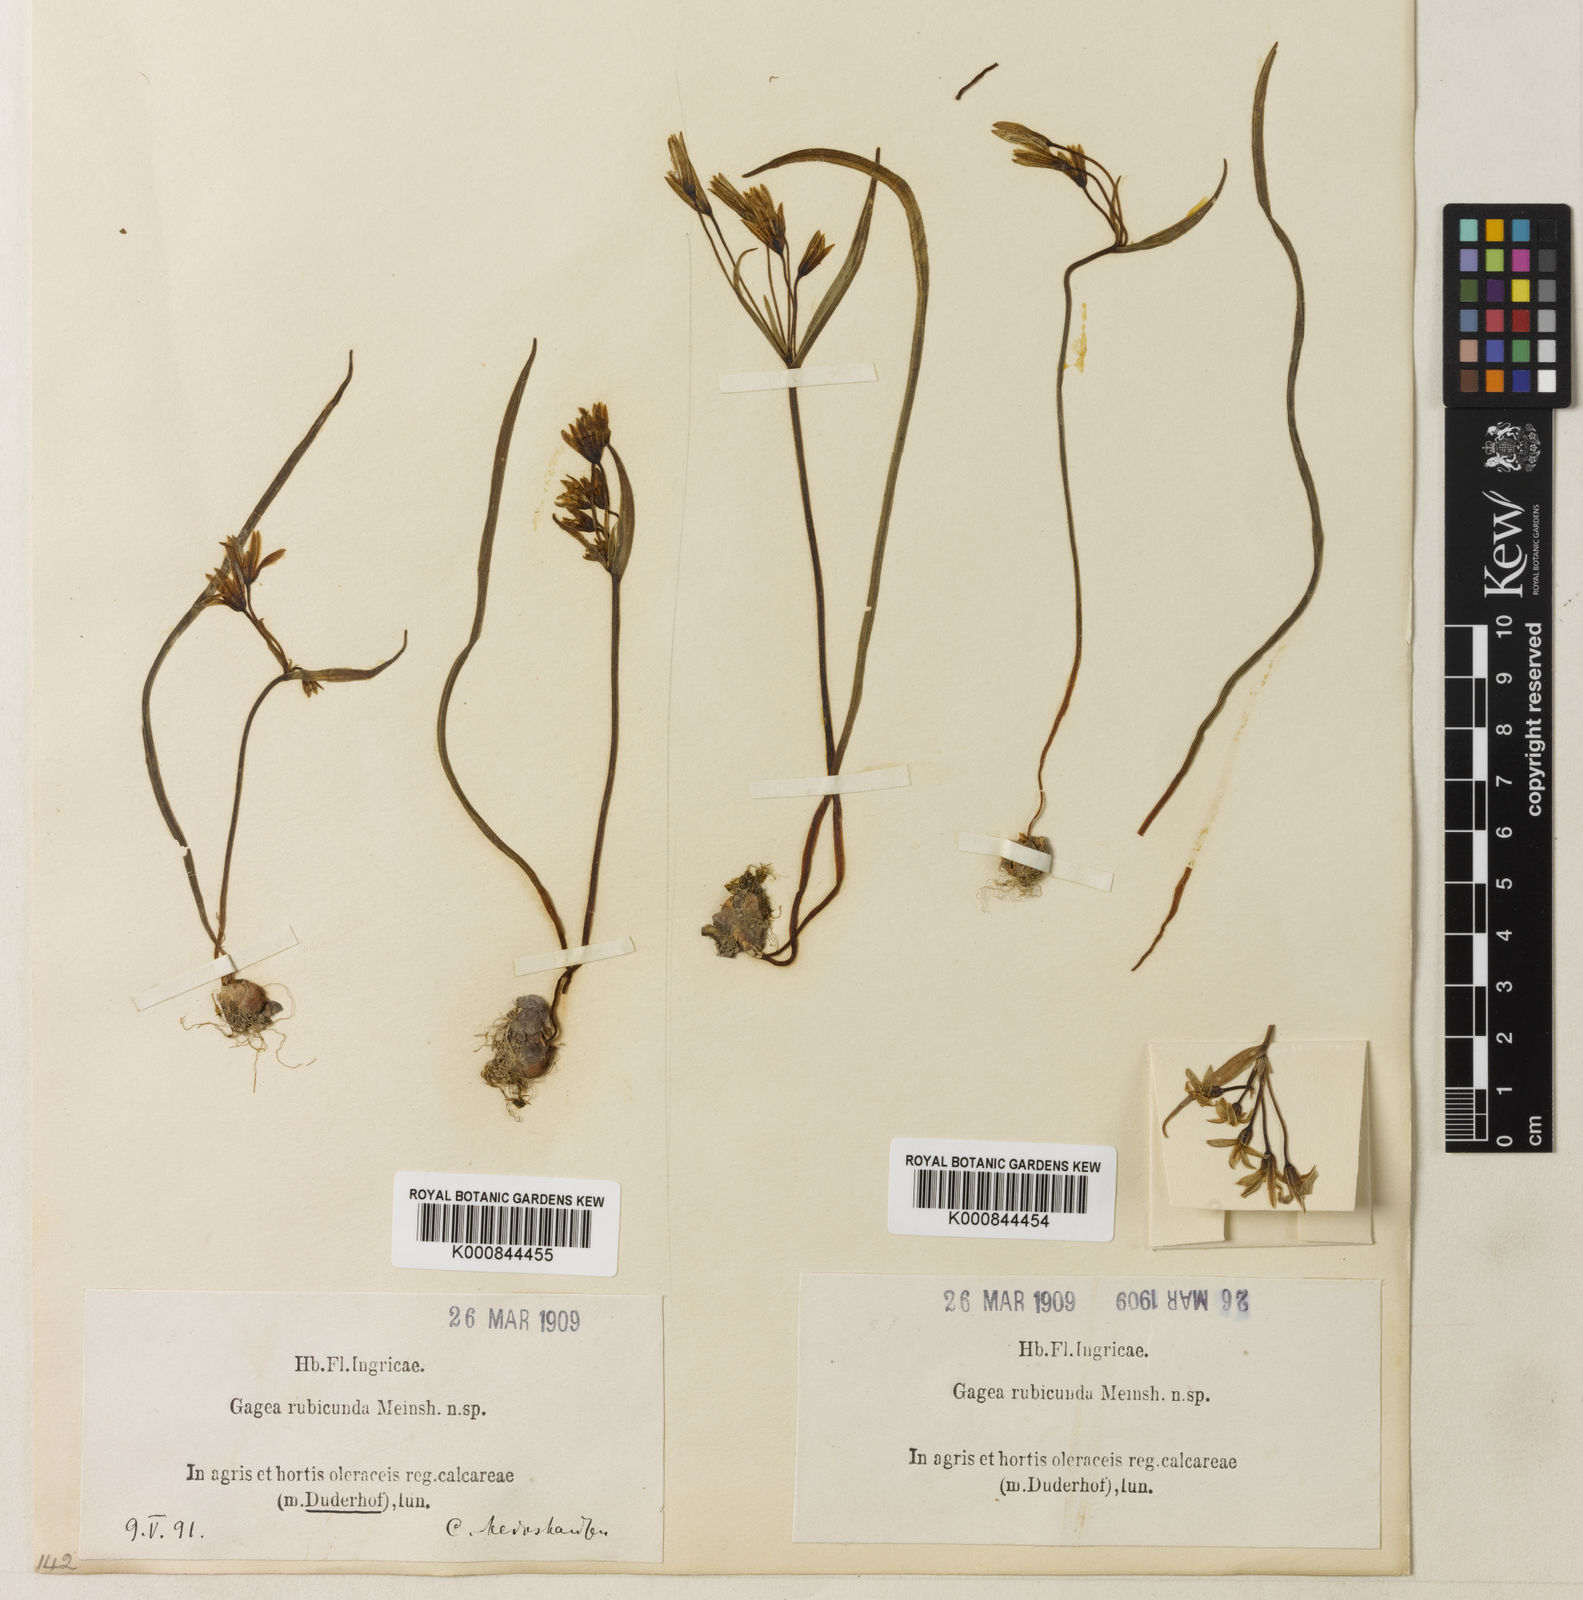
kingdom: Plantae
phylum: Tracheophyta
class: Liliopsida
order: Liliales
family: Liliaceae
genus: Gagea
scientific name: Gagea fragifera
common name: Lily
